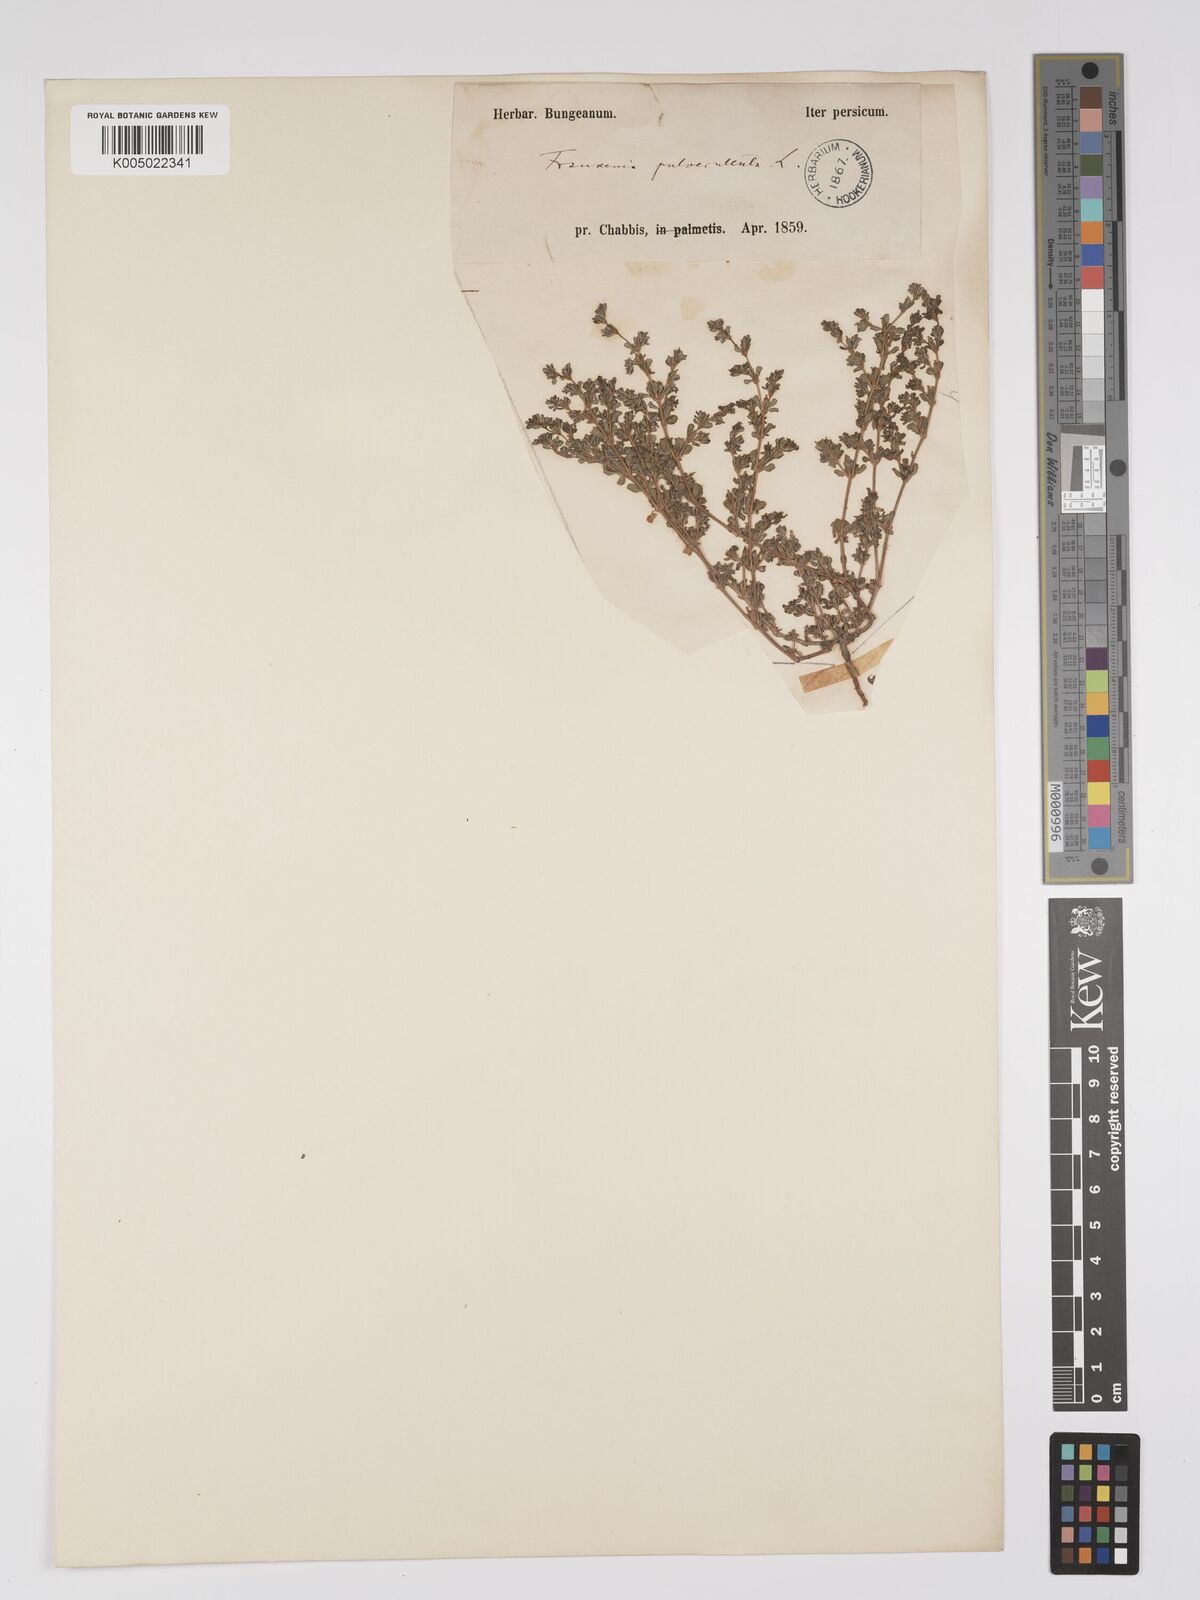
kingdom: Plantae
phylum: Tracheophyta
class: Magnoliopsida
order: Caryophyllales
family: Frankeniaceae
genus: Frankenia
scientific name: Frankenia pulverulenta
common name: European seaheath
